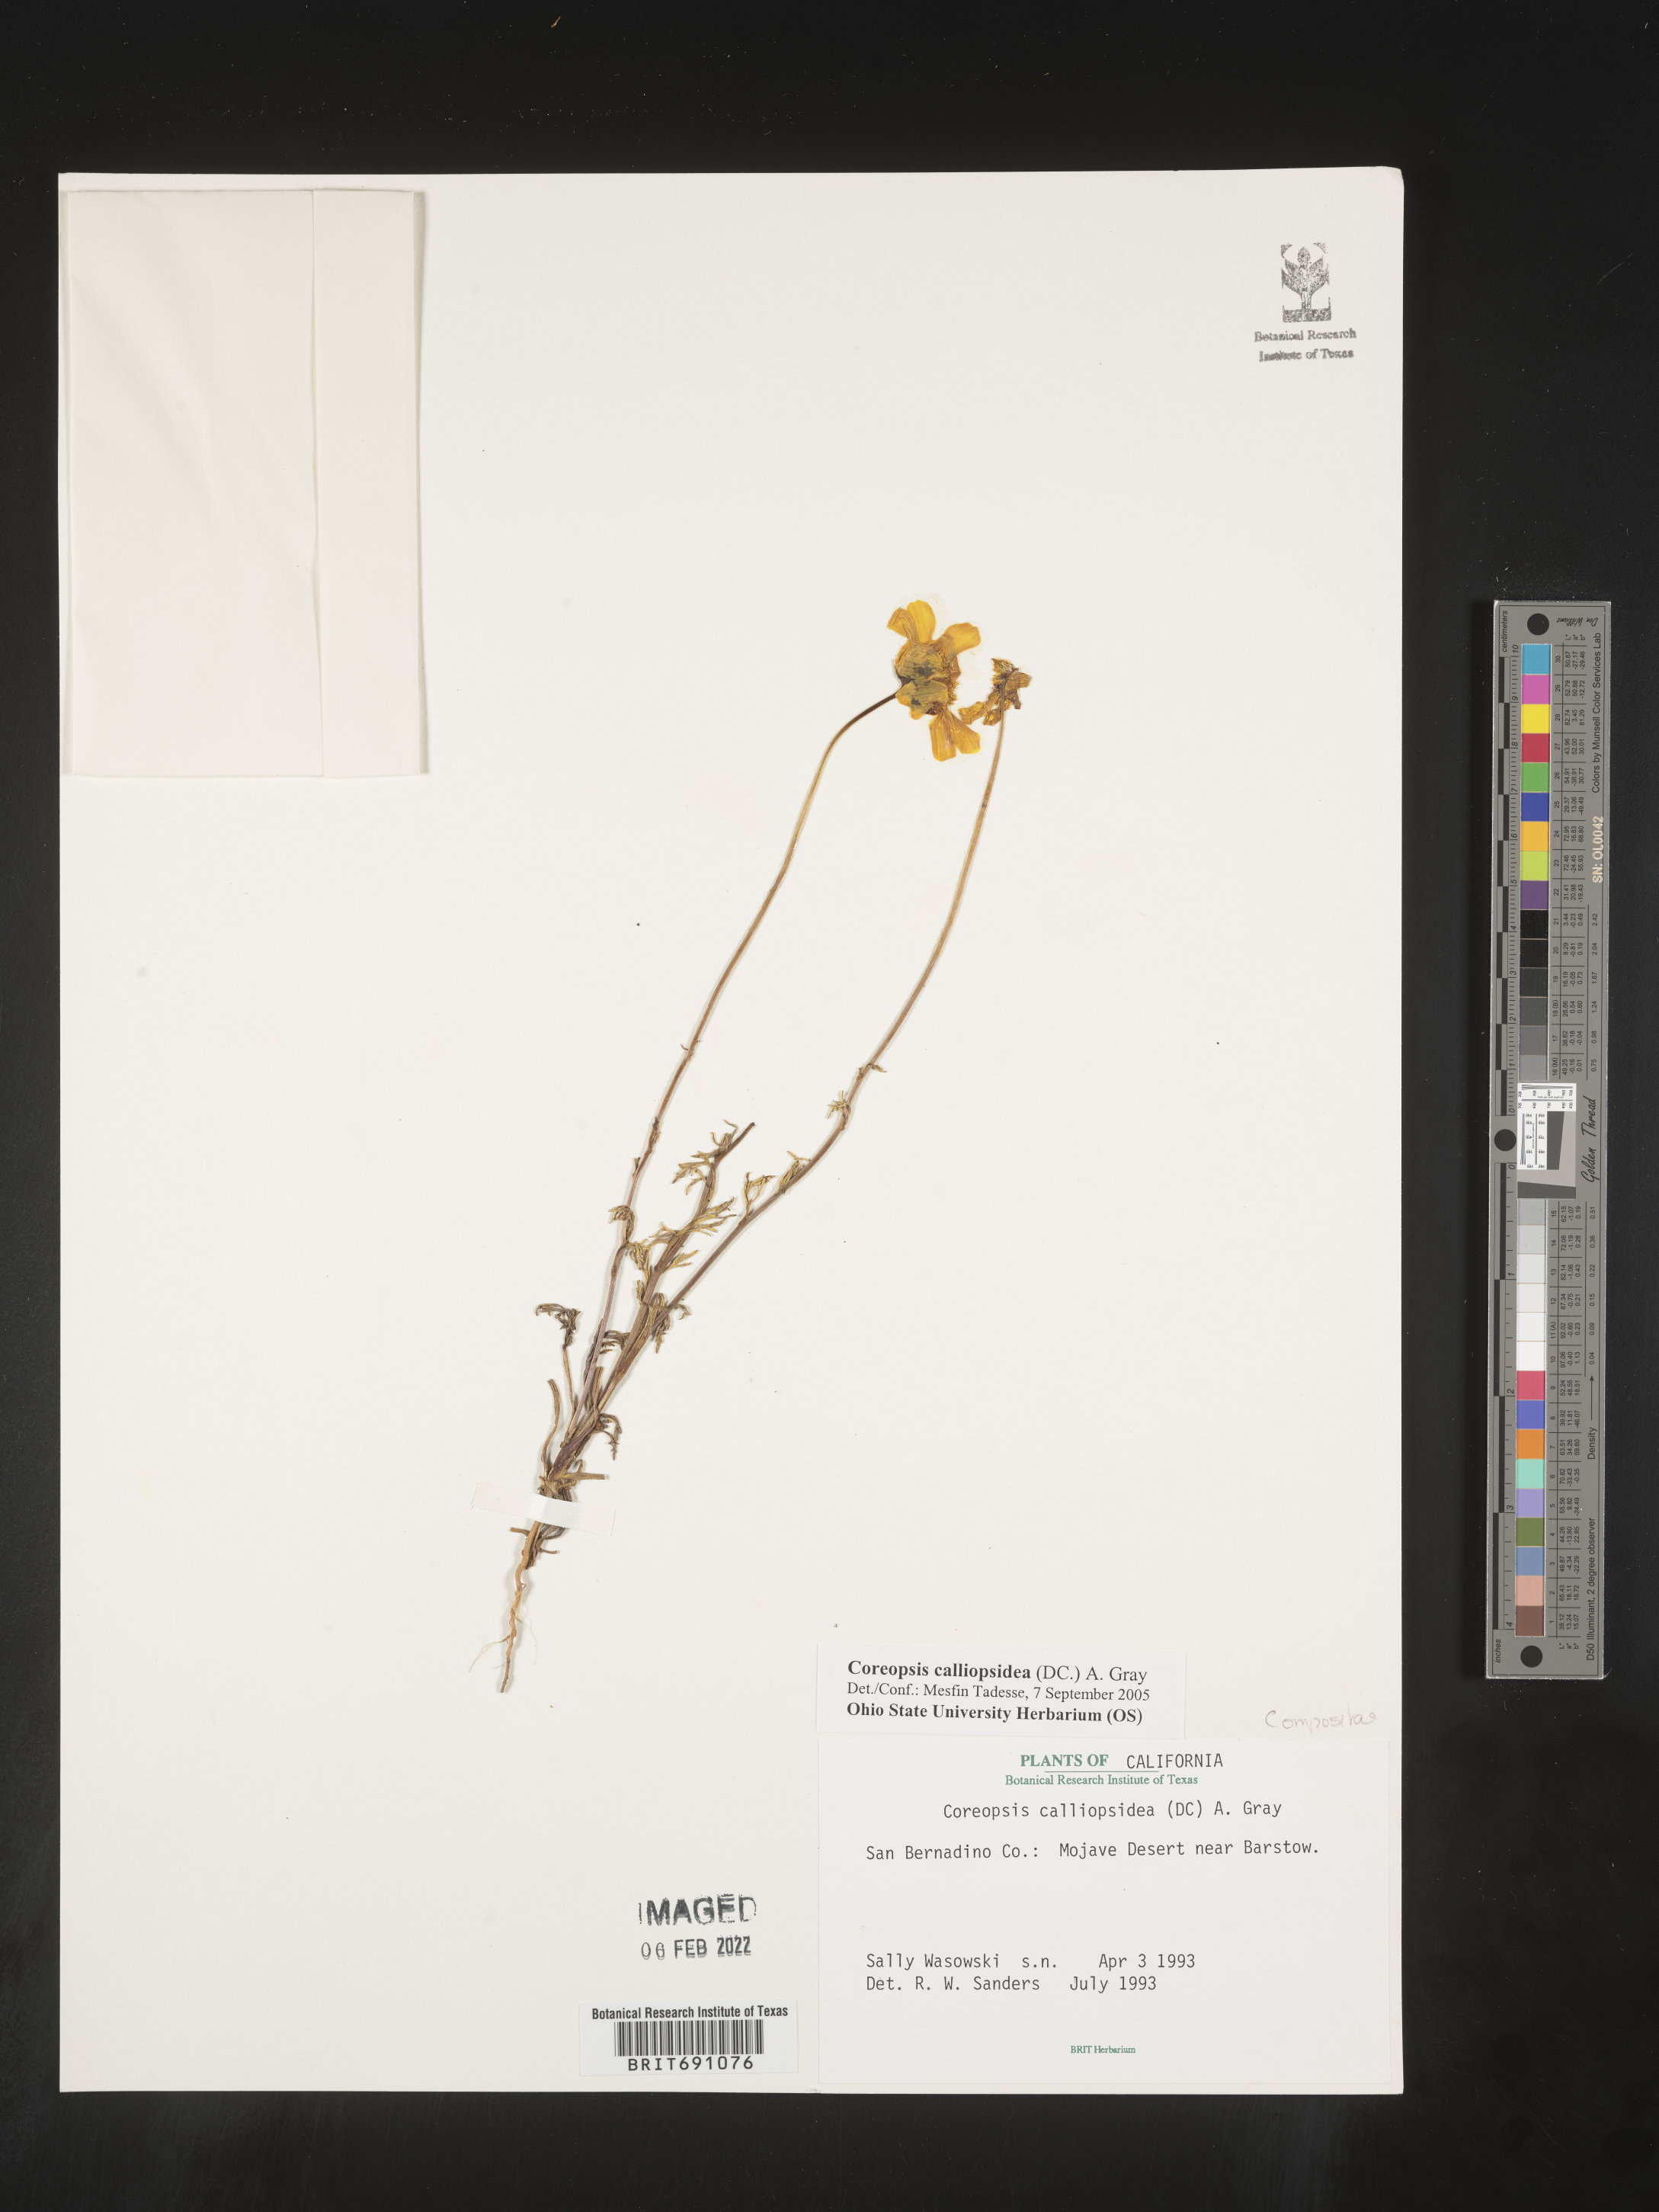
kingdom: Plantae
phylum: Tracheophyta
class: Magnoliopsida
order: Asterales
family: Asteraceae
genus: Coreopsis
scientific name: Coreopsis calliopsidea
